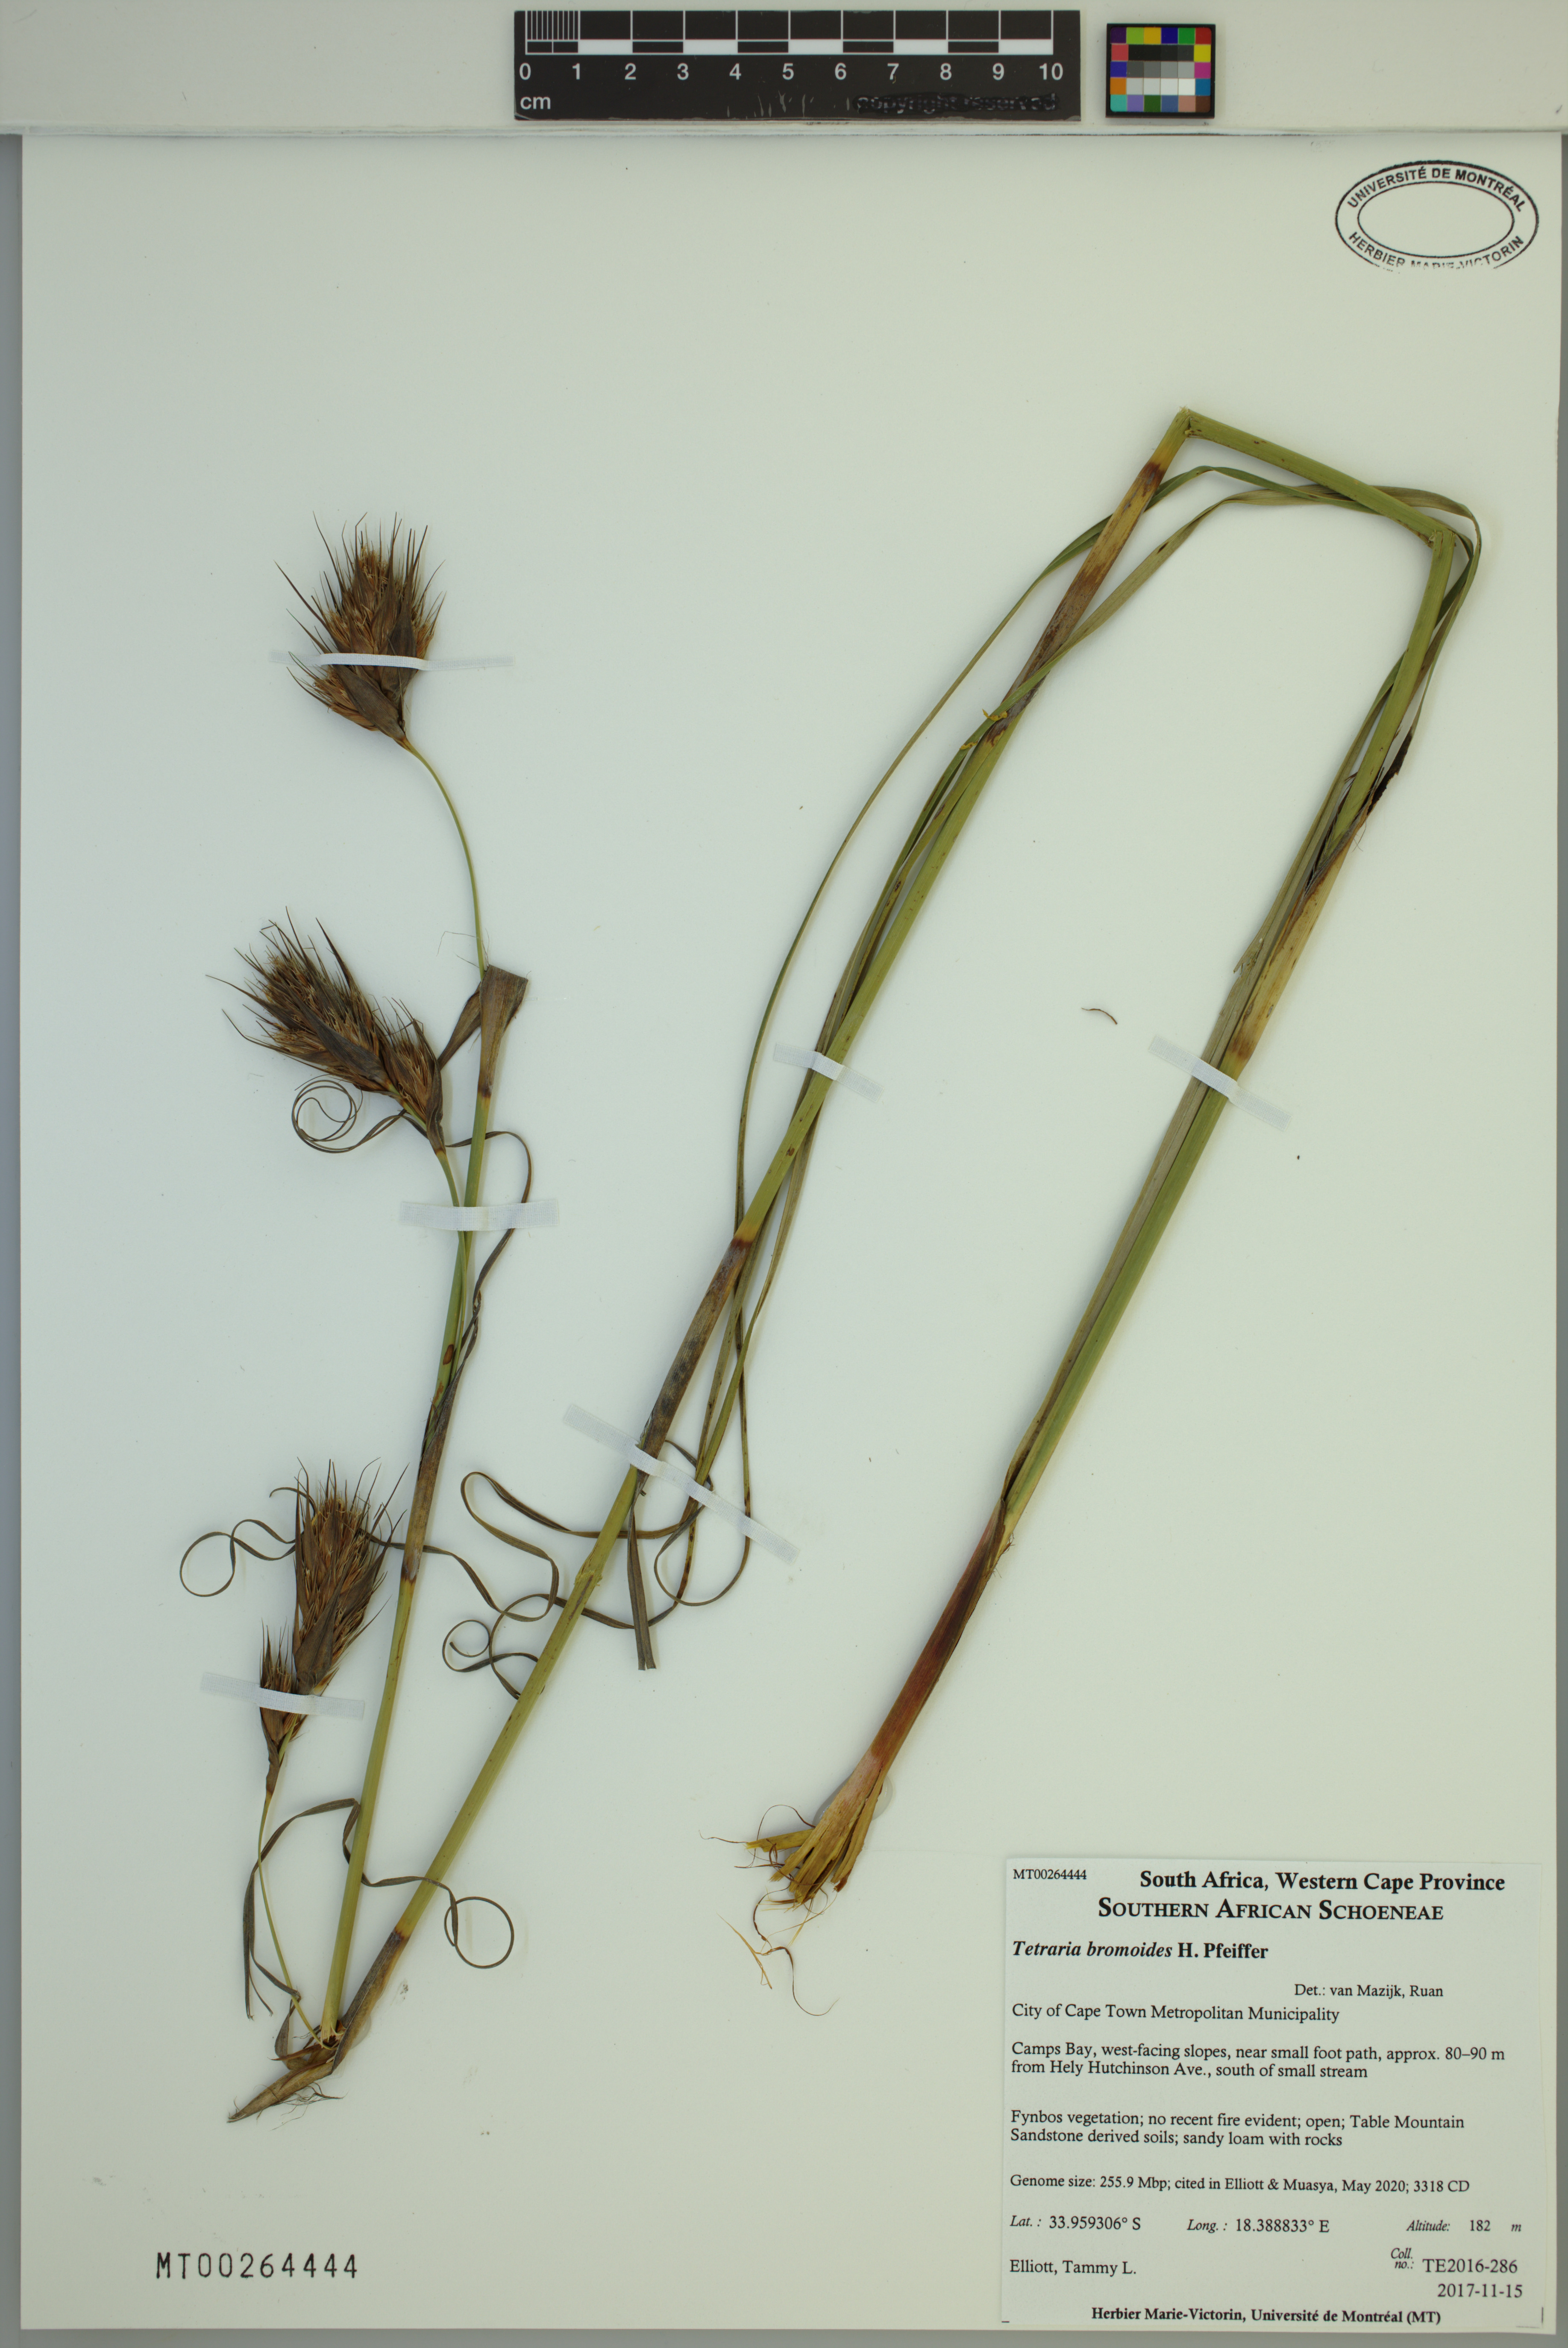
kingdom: Plantae
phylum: Tracheophyta
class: Liliopsida
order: Poales
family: Cyperaceae
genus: Tetraria
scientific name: Tetraria bromoides
